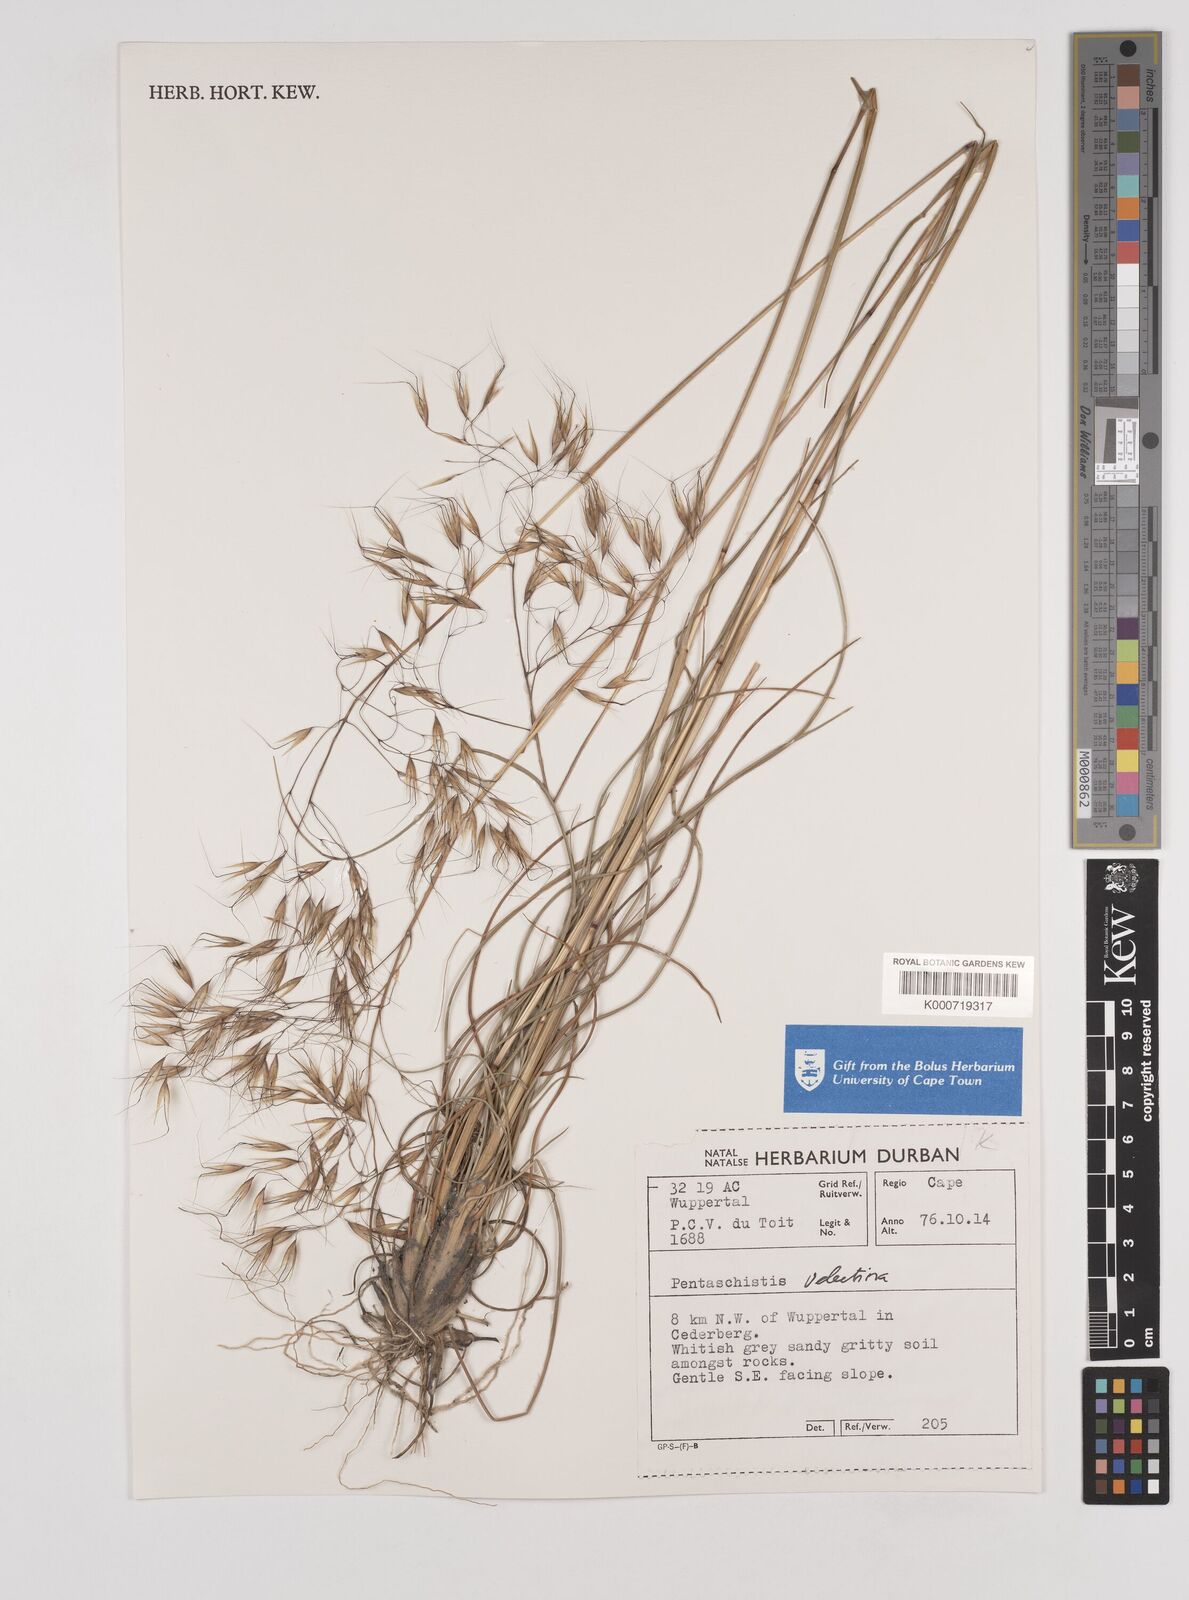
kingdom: Plantae
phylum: Tracheophyta
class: Liliopsida
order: Poales
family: Poaceae
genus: Pentameris
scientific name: Pentameris velutina
